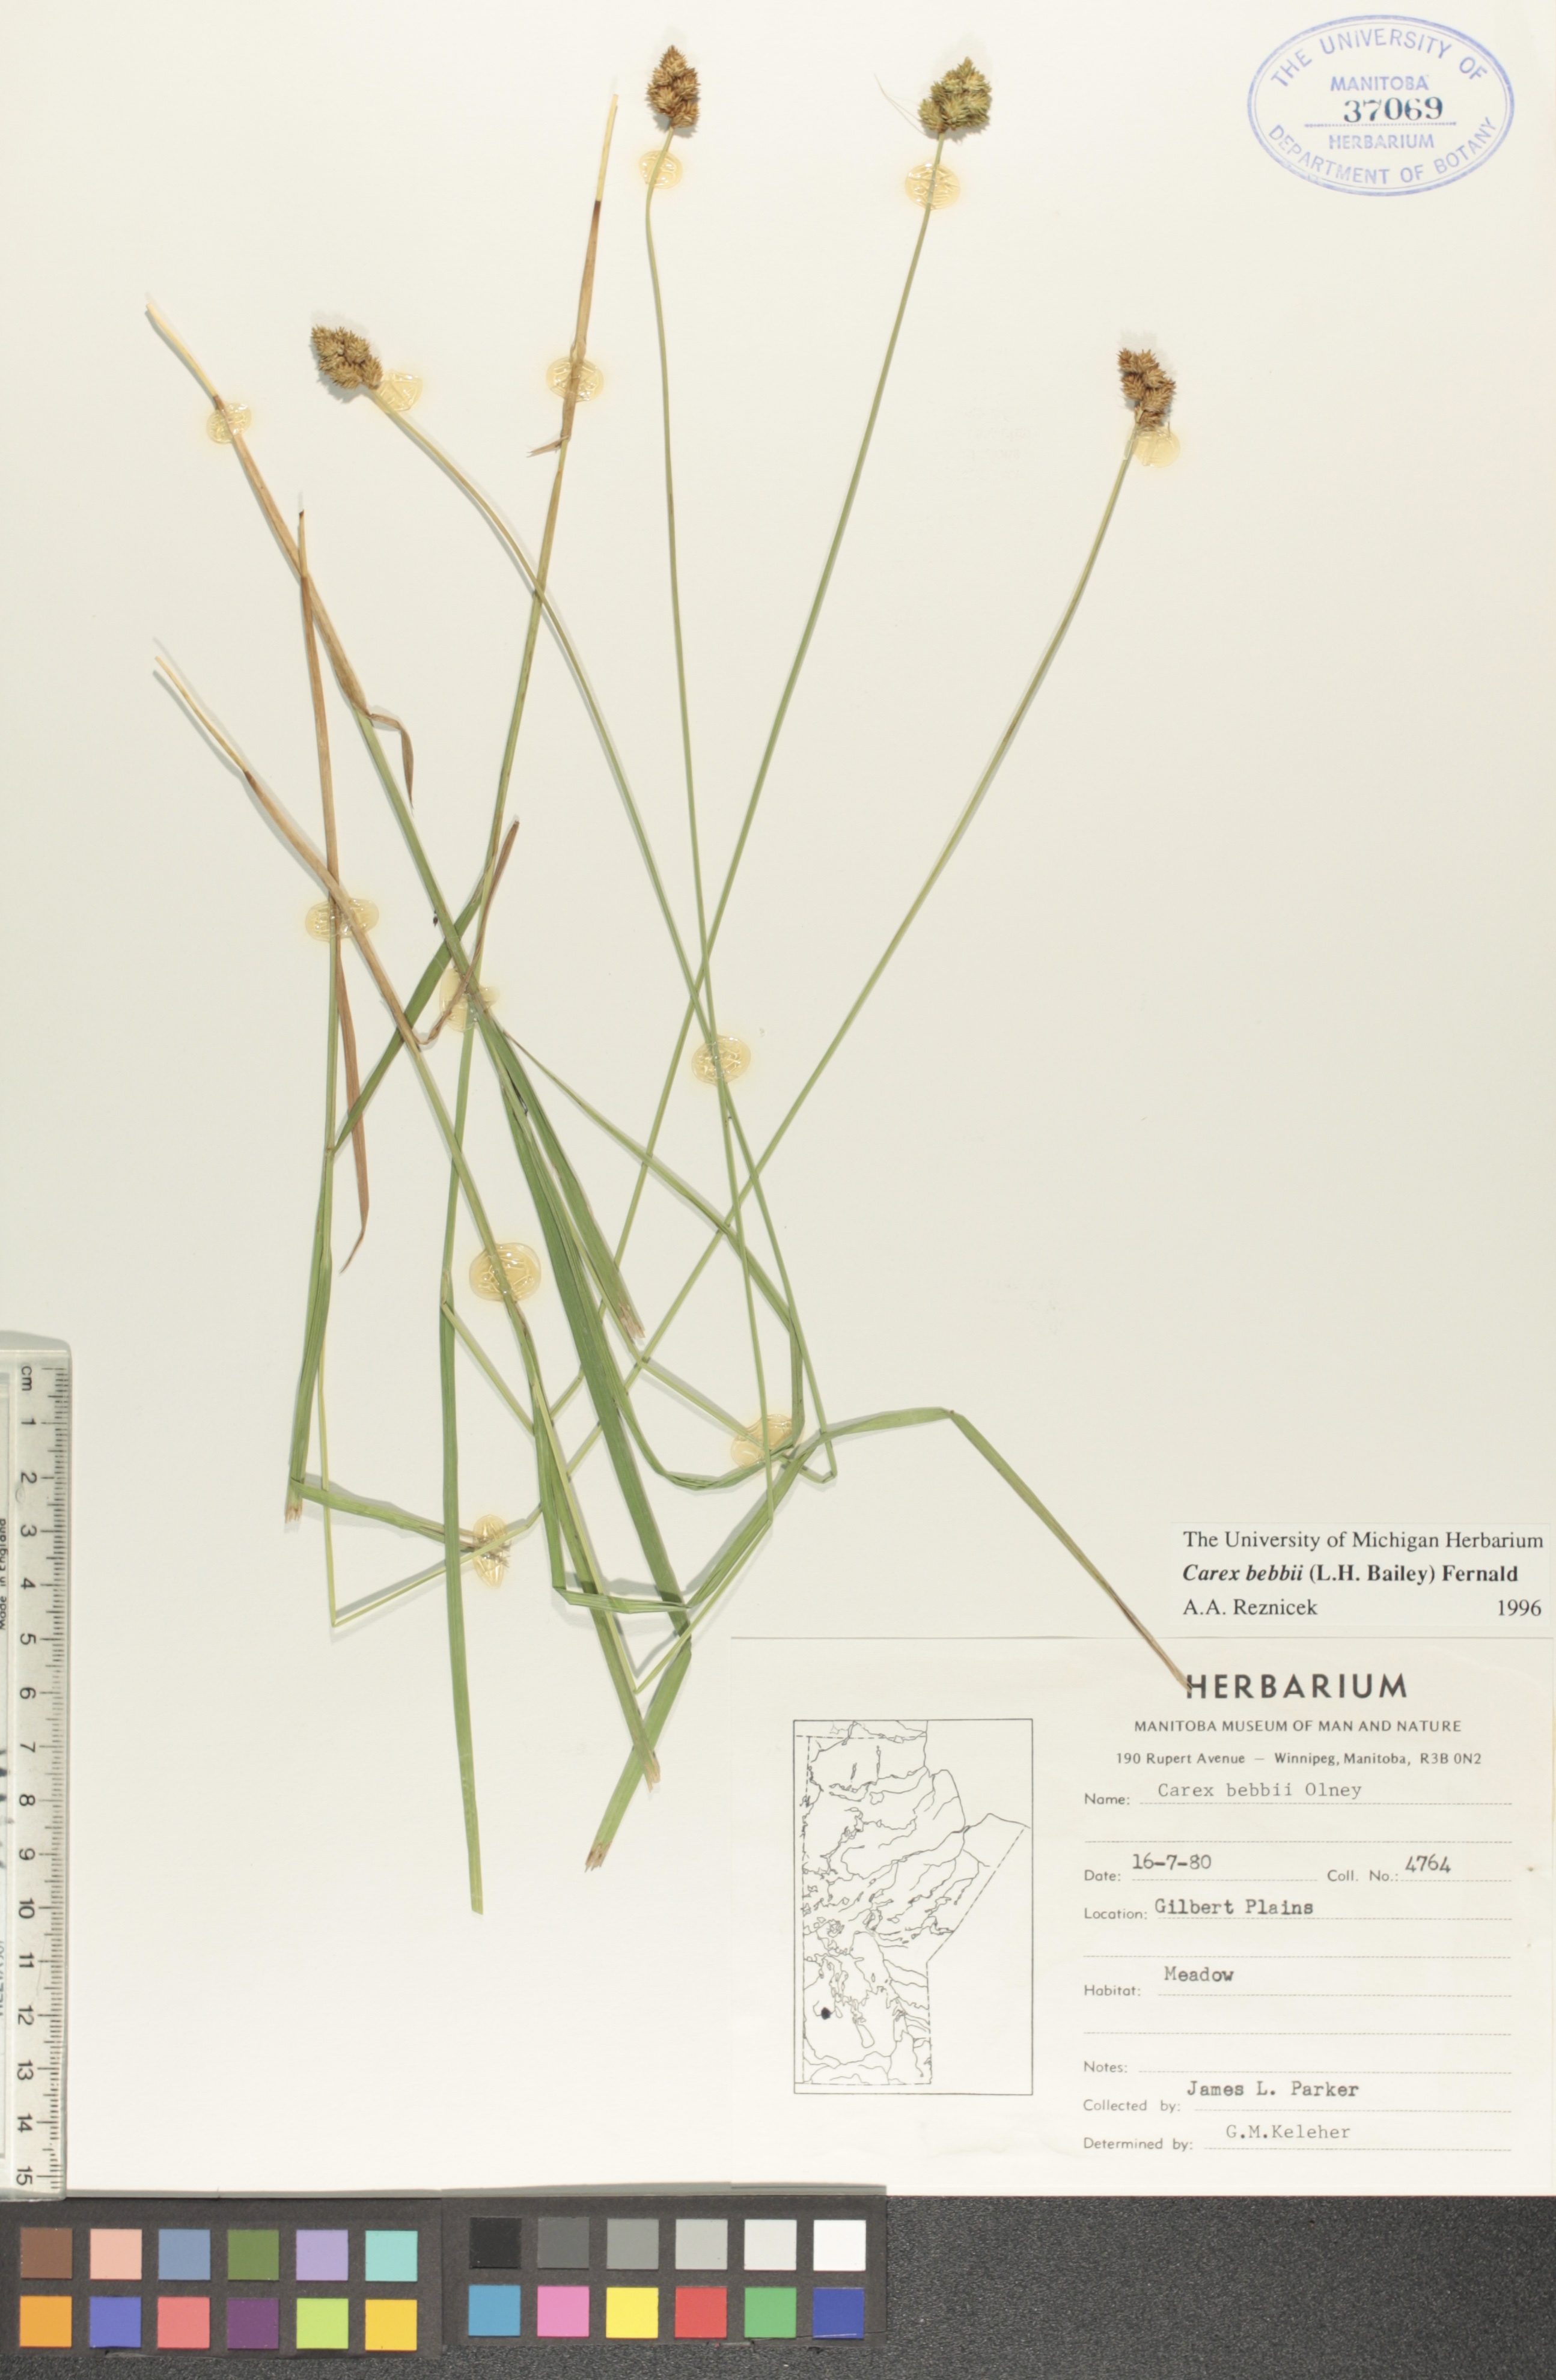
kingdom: Plantae
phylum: Tracheophyta
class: Liliopsida
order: Poales
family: Cyperaceae
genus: Carex
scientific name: Carex bebbii
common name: Bebb's sedge
